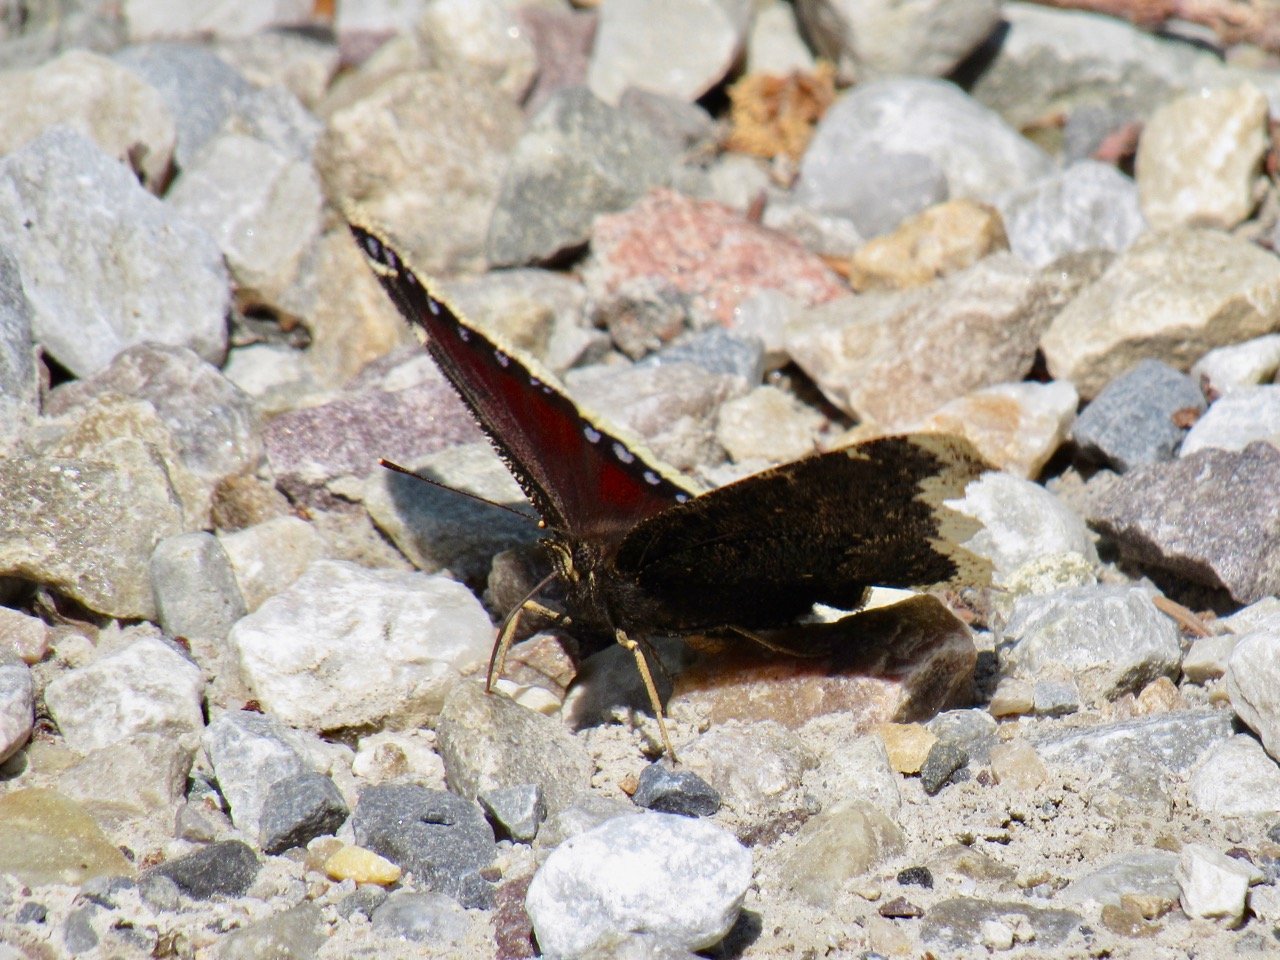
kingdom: Animalia
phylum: Arthropoda
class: Insecta
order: Lepidoptera
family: Nymphalidae
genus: Nymphalis
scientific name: Nymphalis antiopa
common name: Mourning Cloak
